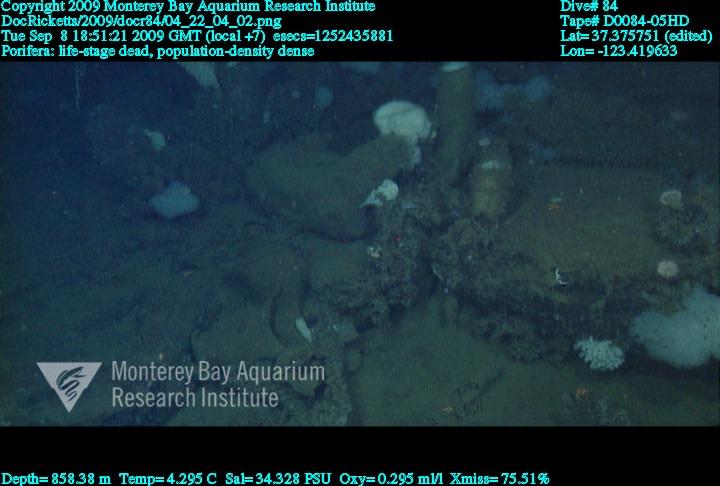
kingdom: Animalia
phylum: Porifera
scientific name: Porifera
